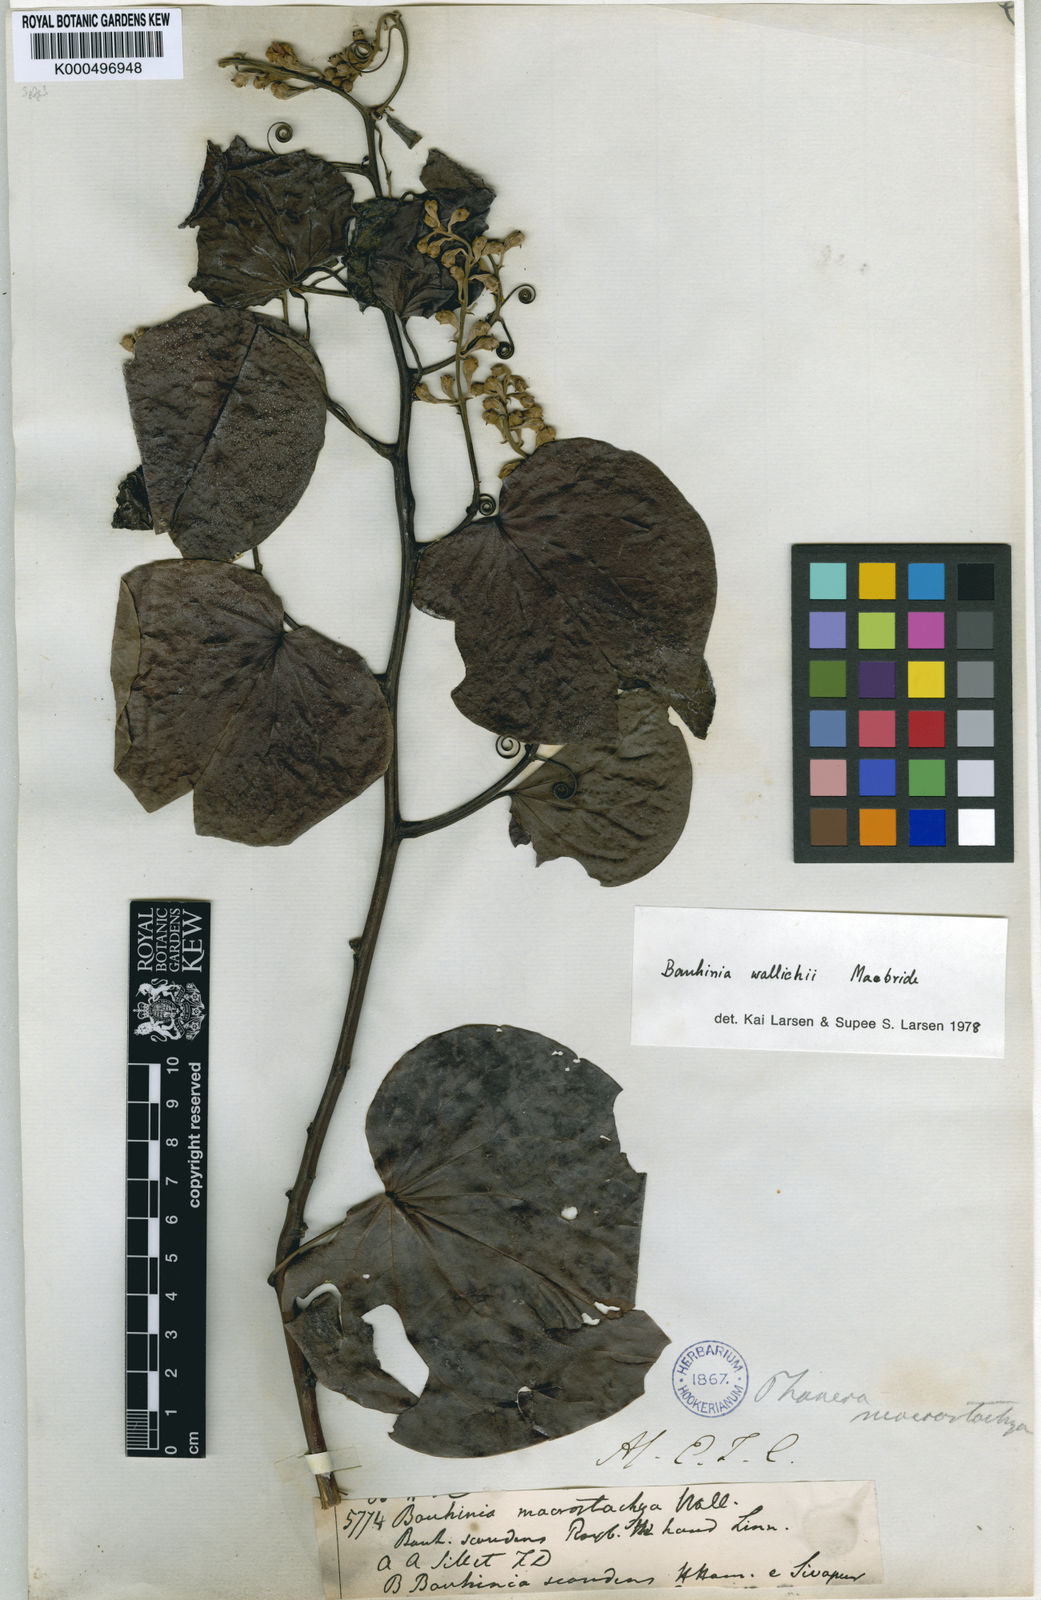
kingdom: Plantae
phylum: Tracheophyta
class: Magnoliopsida
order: Fabales
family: Fabaceae
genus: Phanera
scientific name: Phanera macrostachya
